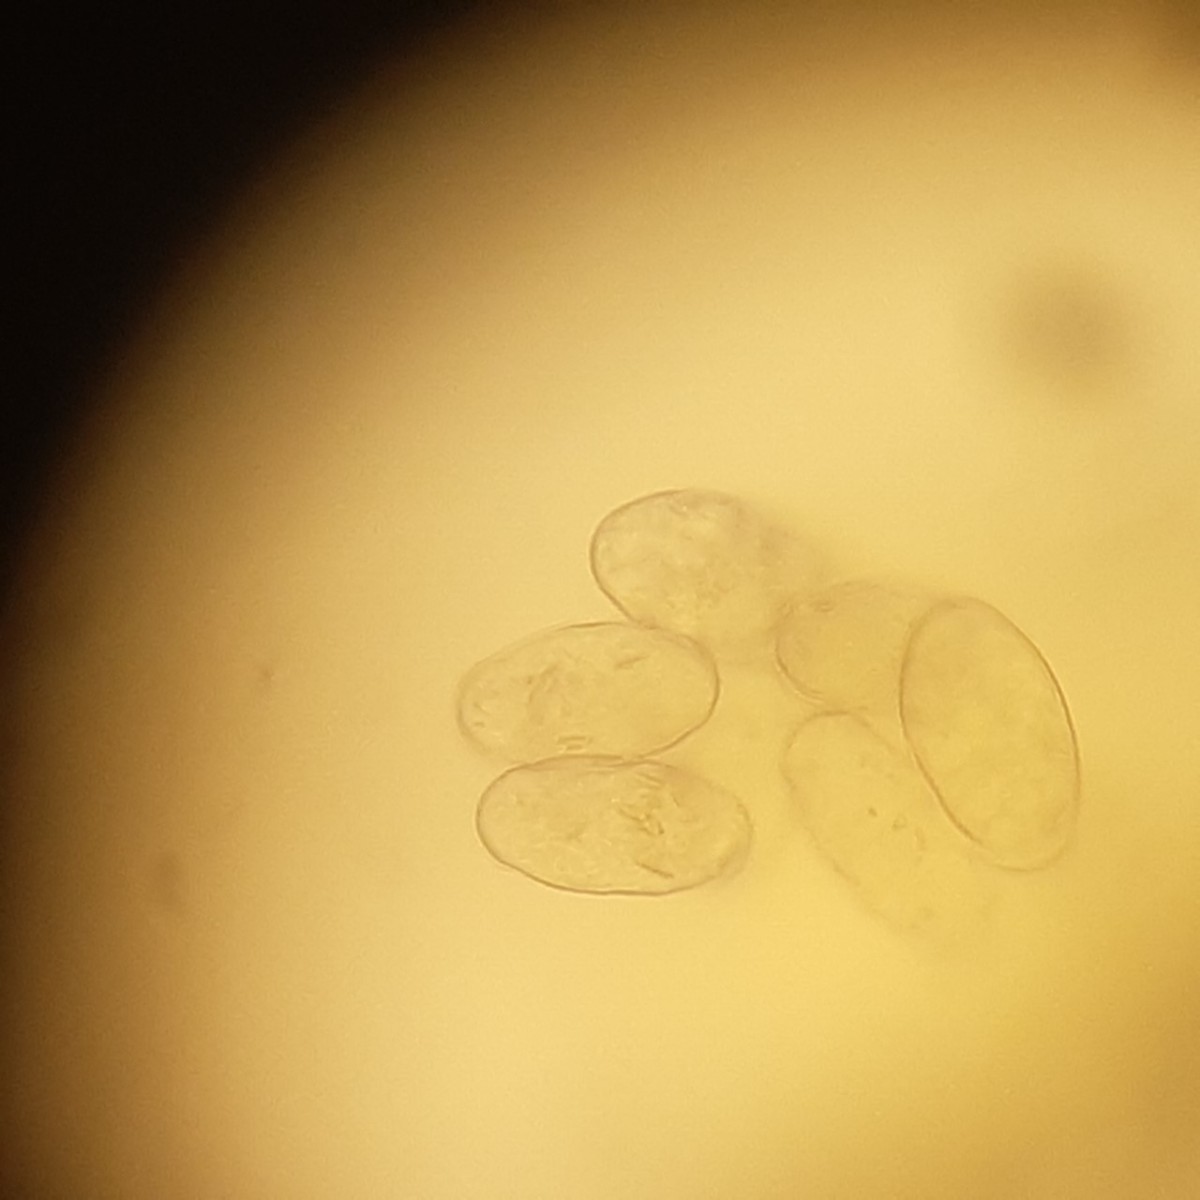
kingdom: Fungi
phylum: Ascomycota
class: Leotiomycetes
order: Helotiales
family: Erysiphaceae
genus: Podosphaera
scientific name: Podosphaera fusca
